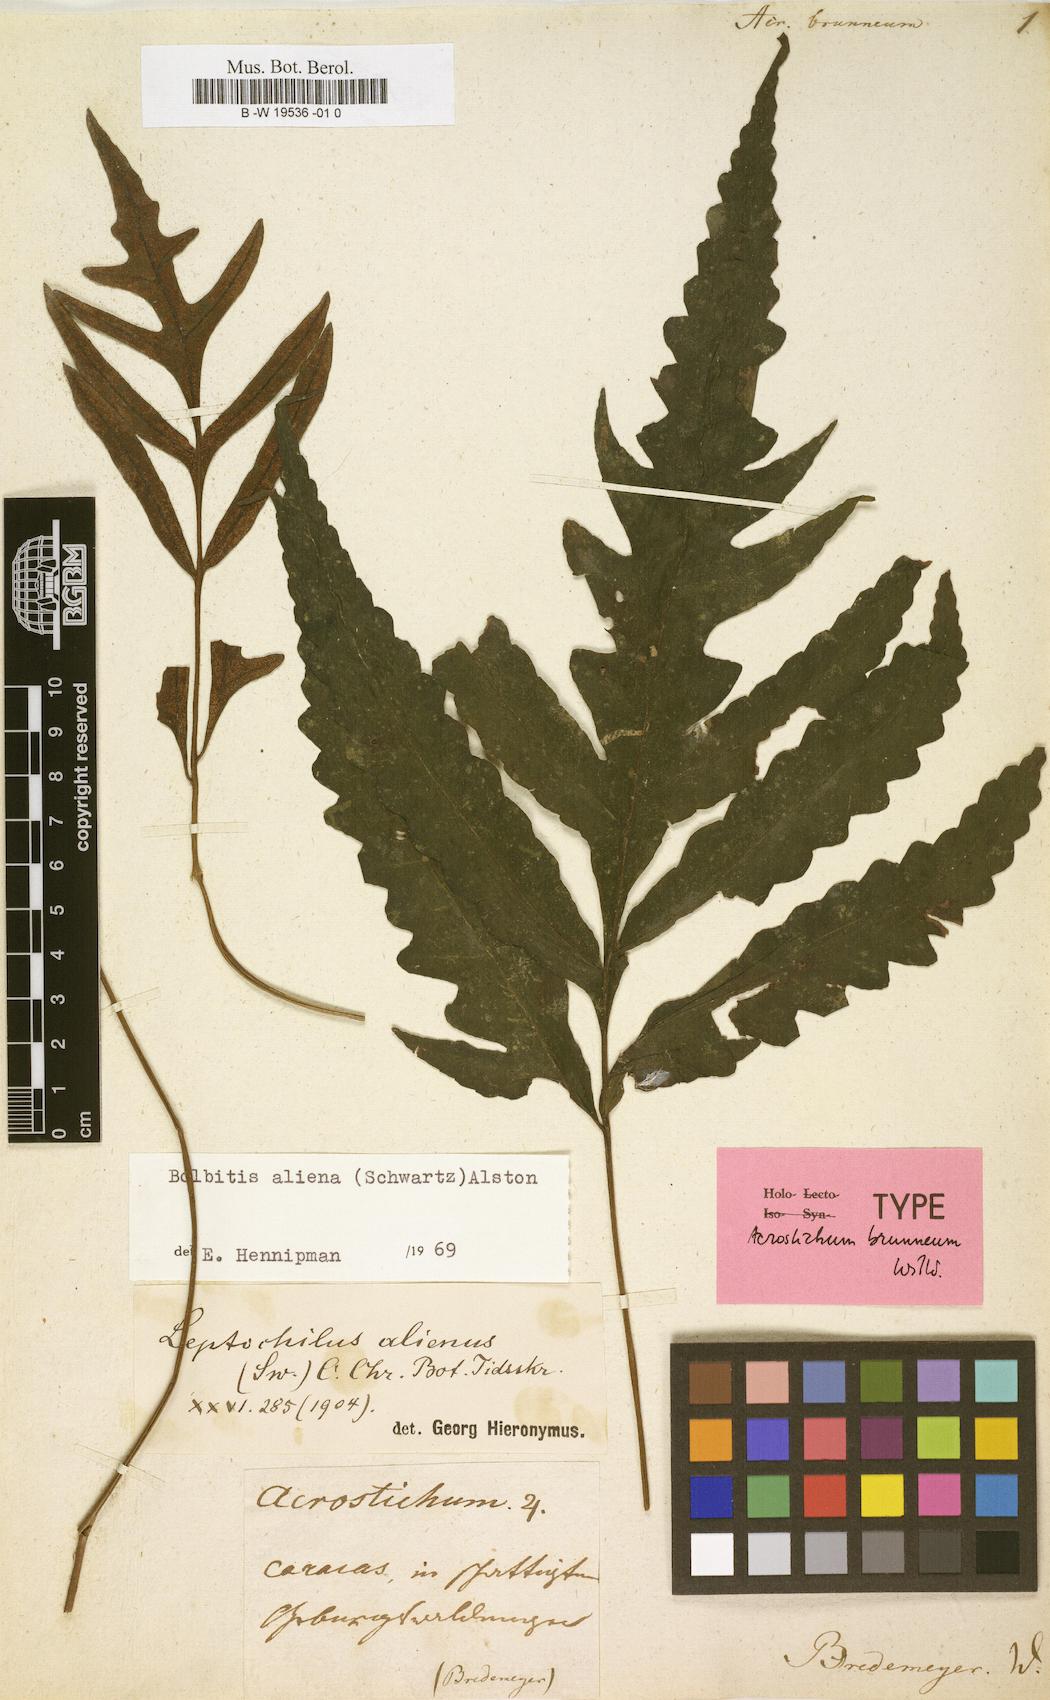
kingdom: Plantae
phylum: Tracheophyta
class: Polypodiopsida
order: Polypodiales
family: Dryopteridaceae
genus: Bolbitis
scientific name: Bolbitis aliena
